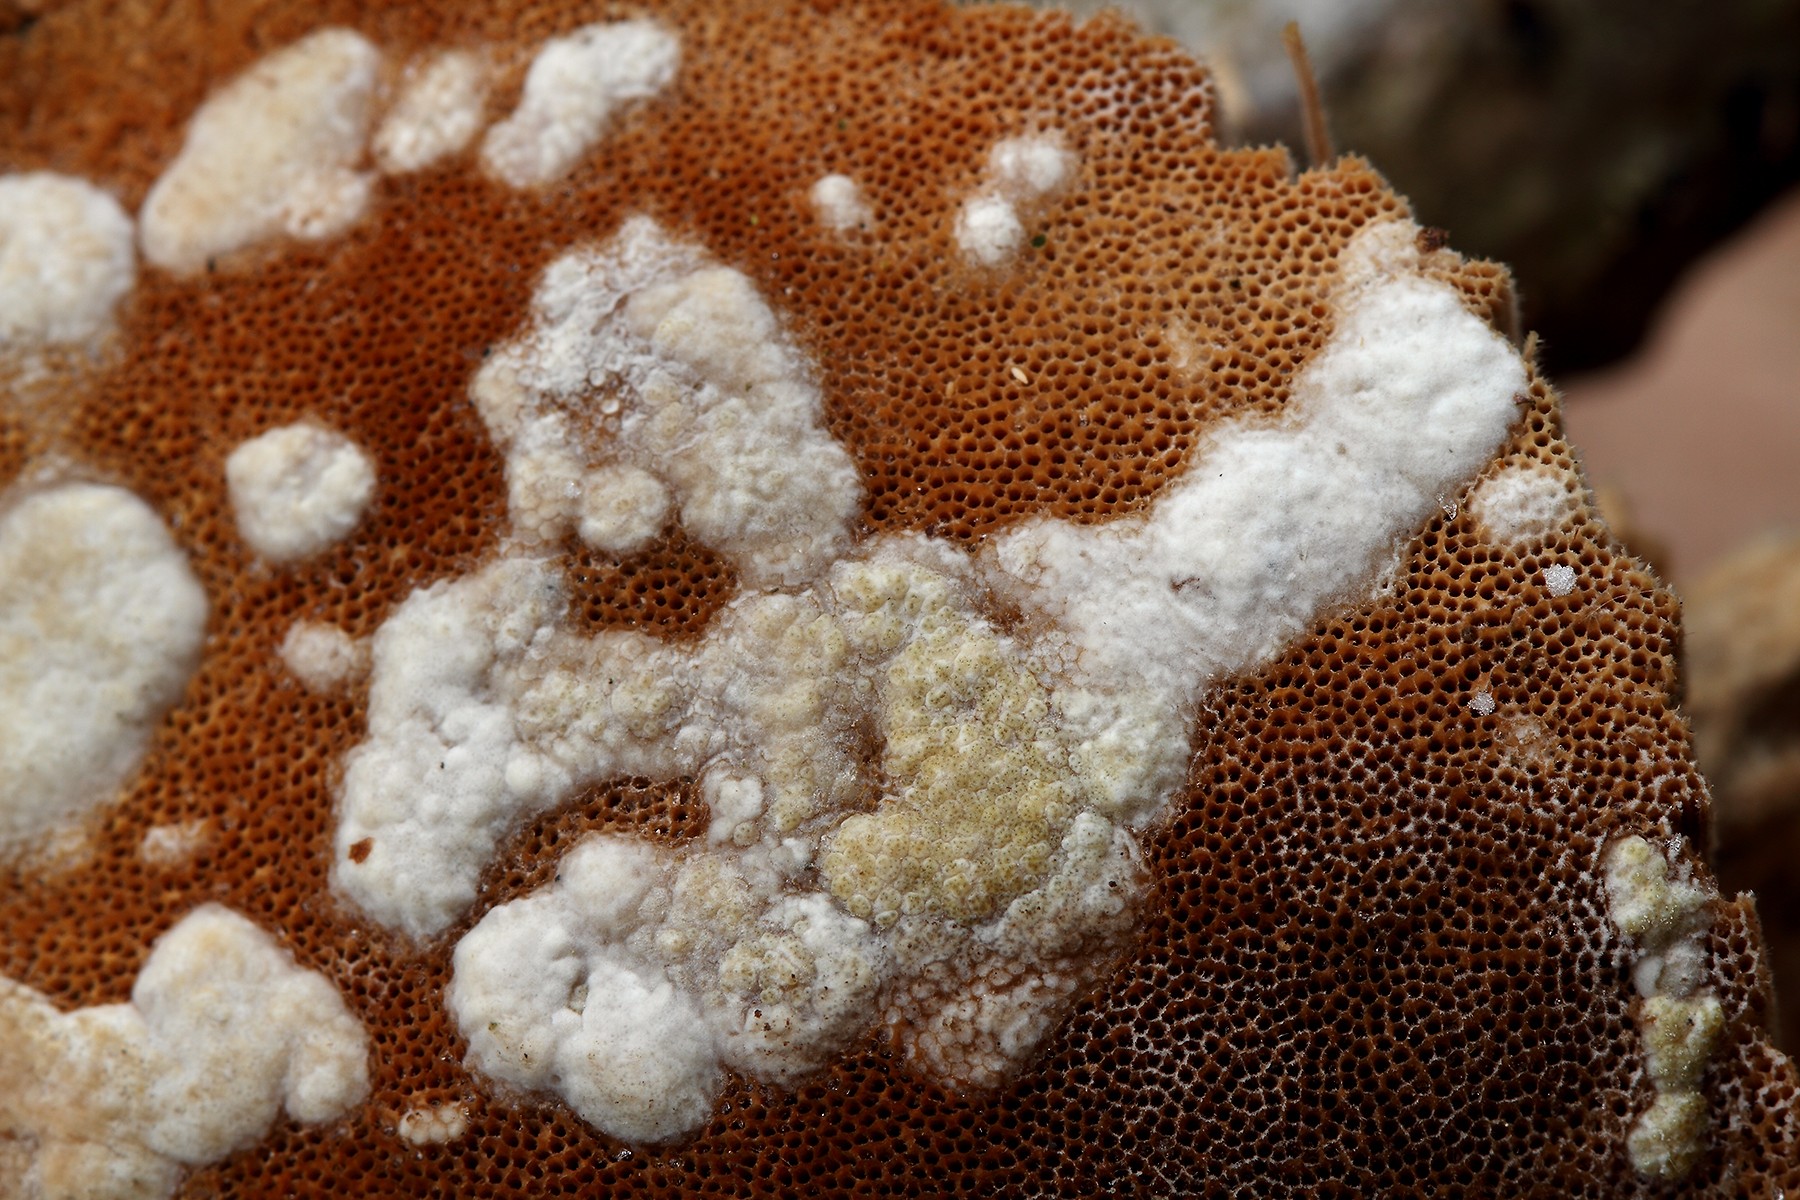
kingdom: Fungi
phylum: Ascomycota
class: Sordariomycetes
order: Hypocreales
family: Hypocreaceae
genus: Trichoderma
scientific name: Trichoderma pulvinatum
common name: snyltende kødkerne
